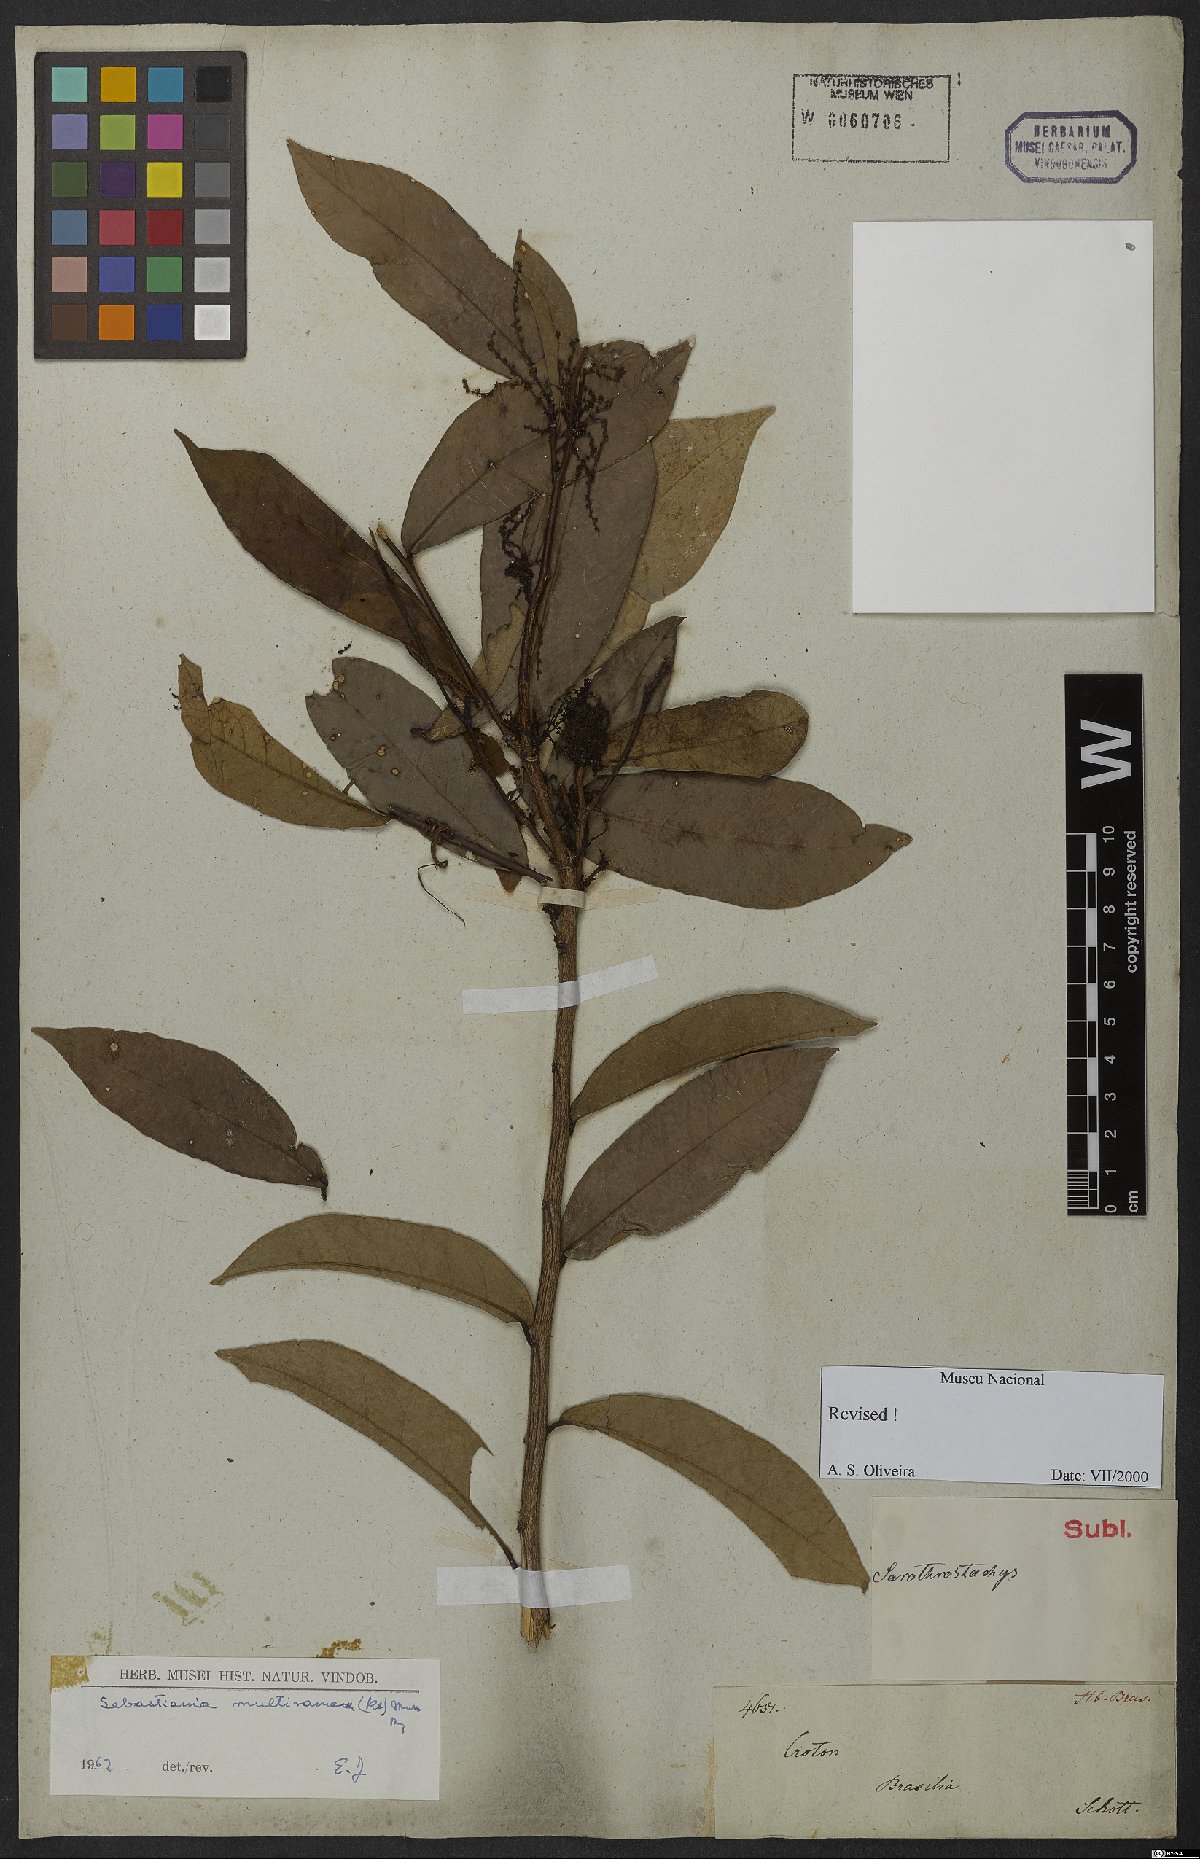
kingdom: Plantae
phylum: Tracheophyta
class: Magnoliopsida
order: Malpighiales
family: Euphorbiaceae
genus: Gymnanthes
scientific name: Gymnanthes glabrata
